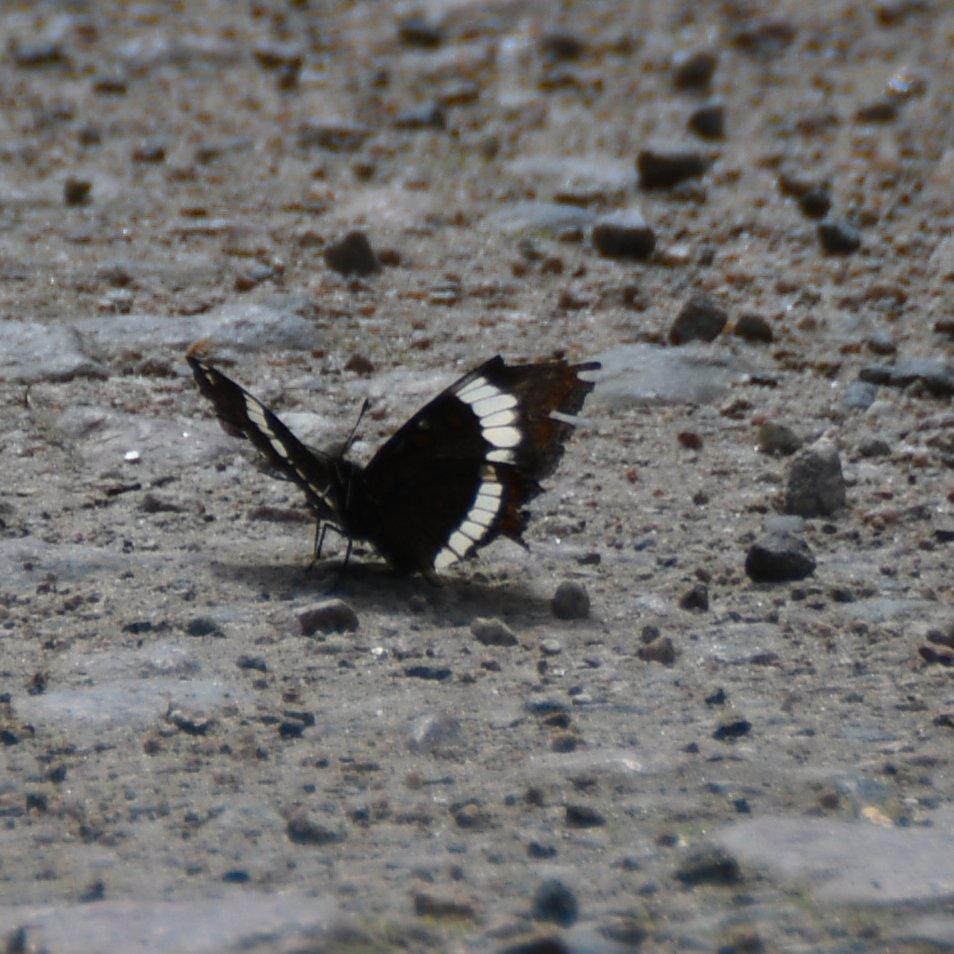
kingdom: Animalia
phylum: Arthropoda
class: Insecta
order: Lepidoptera
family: Nymphalidae
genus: Limenitis
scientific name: Limenitis arthemis
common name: Red-spotted Admiral
